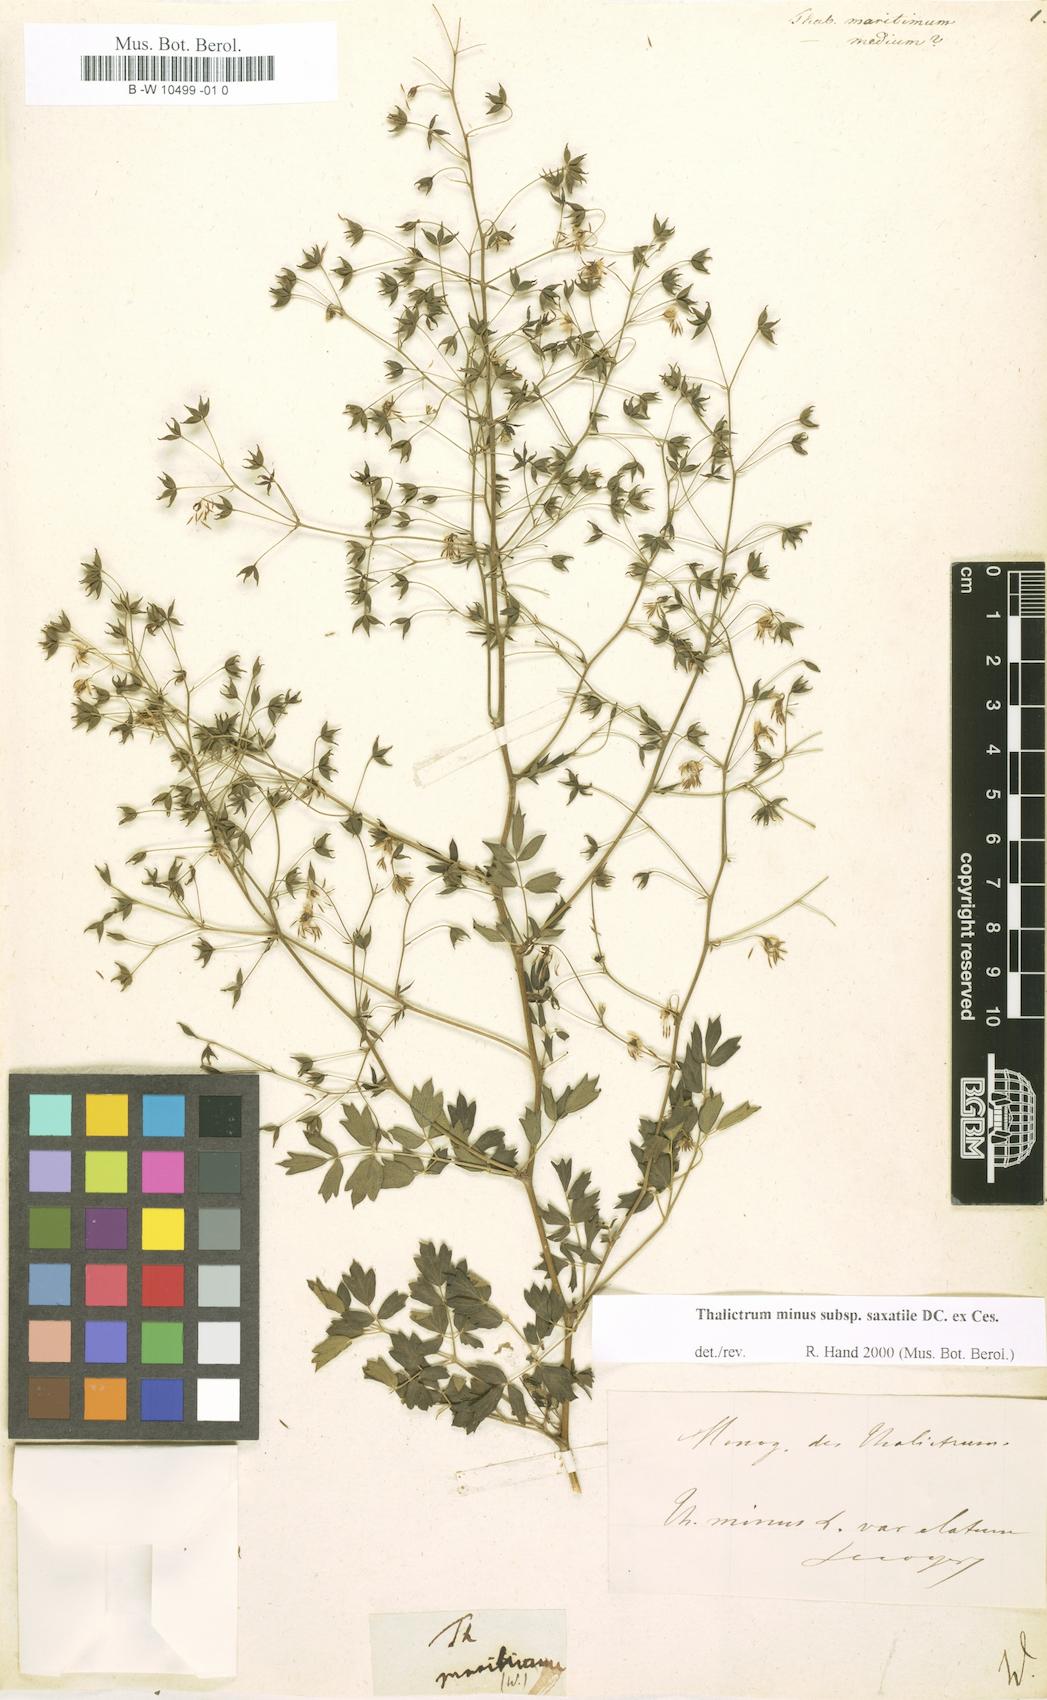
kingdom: Plantae
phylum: Tracheophyta
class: Magnoliopsida
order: Ranunculales
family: Ranunculaceae
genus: Thalictrum
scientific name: Thalictrum maritimum
